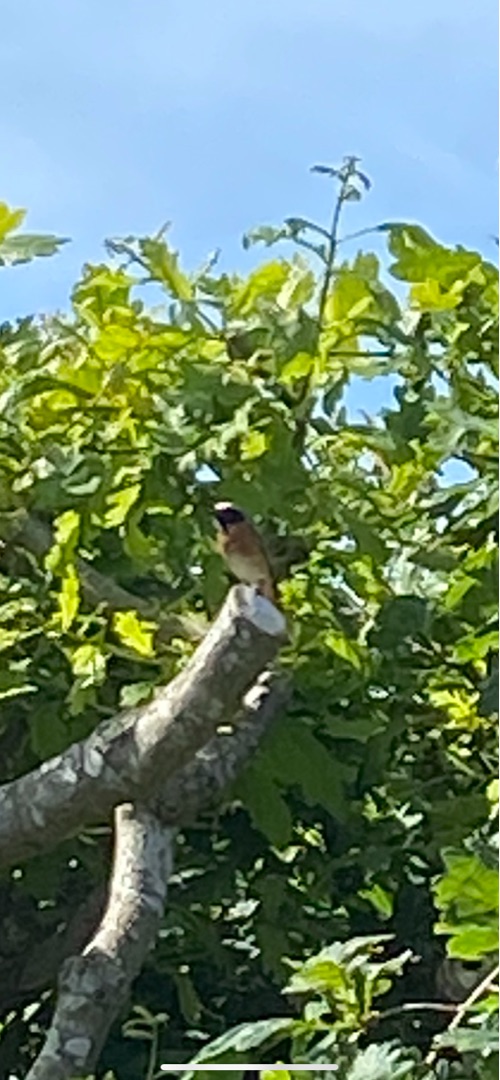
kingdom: Animalia
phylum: Chordata
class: Aves
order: Passeriformes
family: Muscicapidae
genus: Phoenicurus
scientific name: Phoenicurus phoenicurus
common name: Rødstjert
